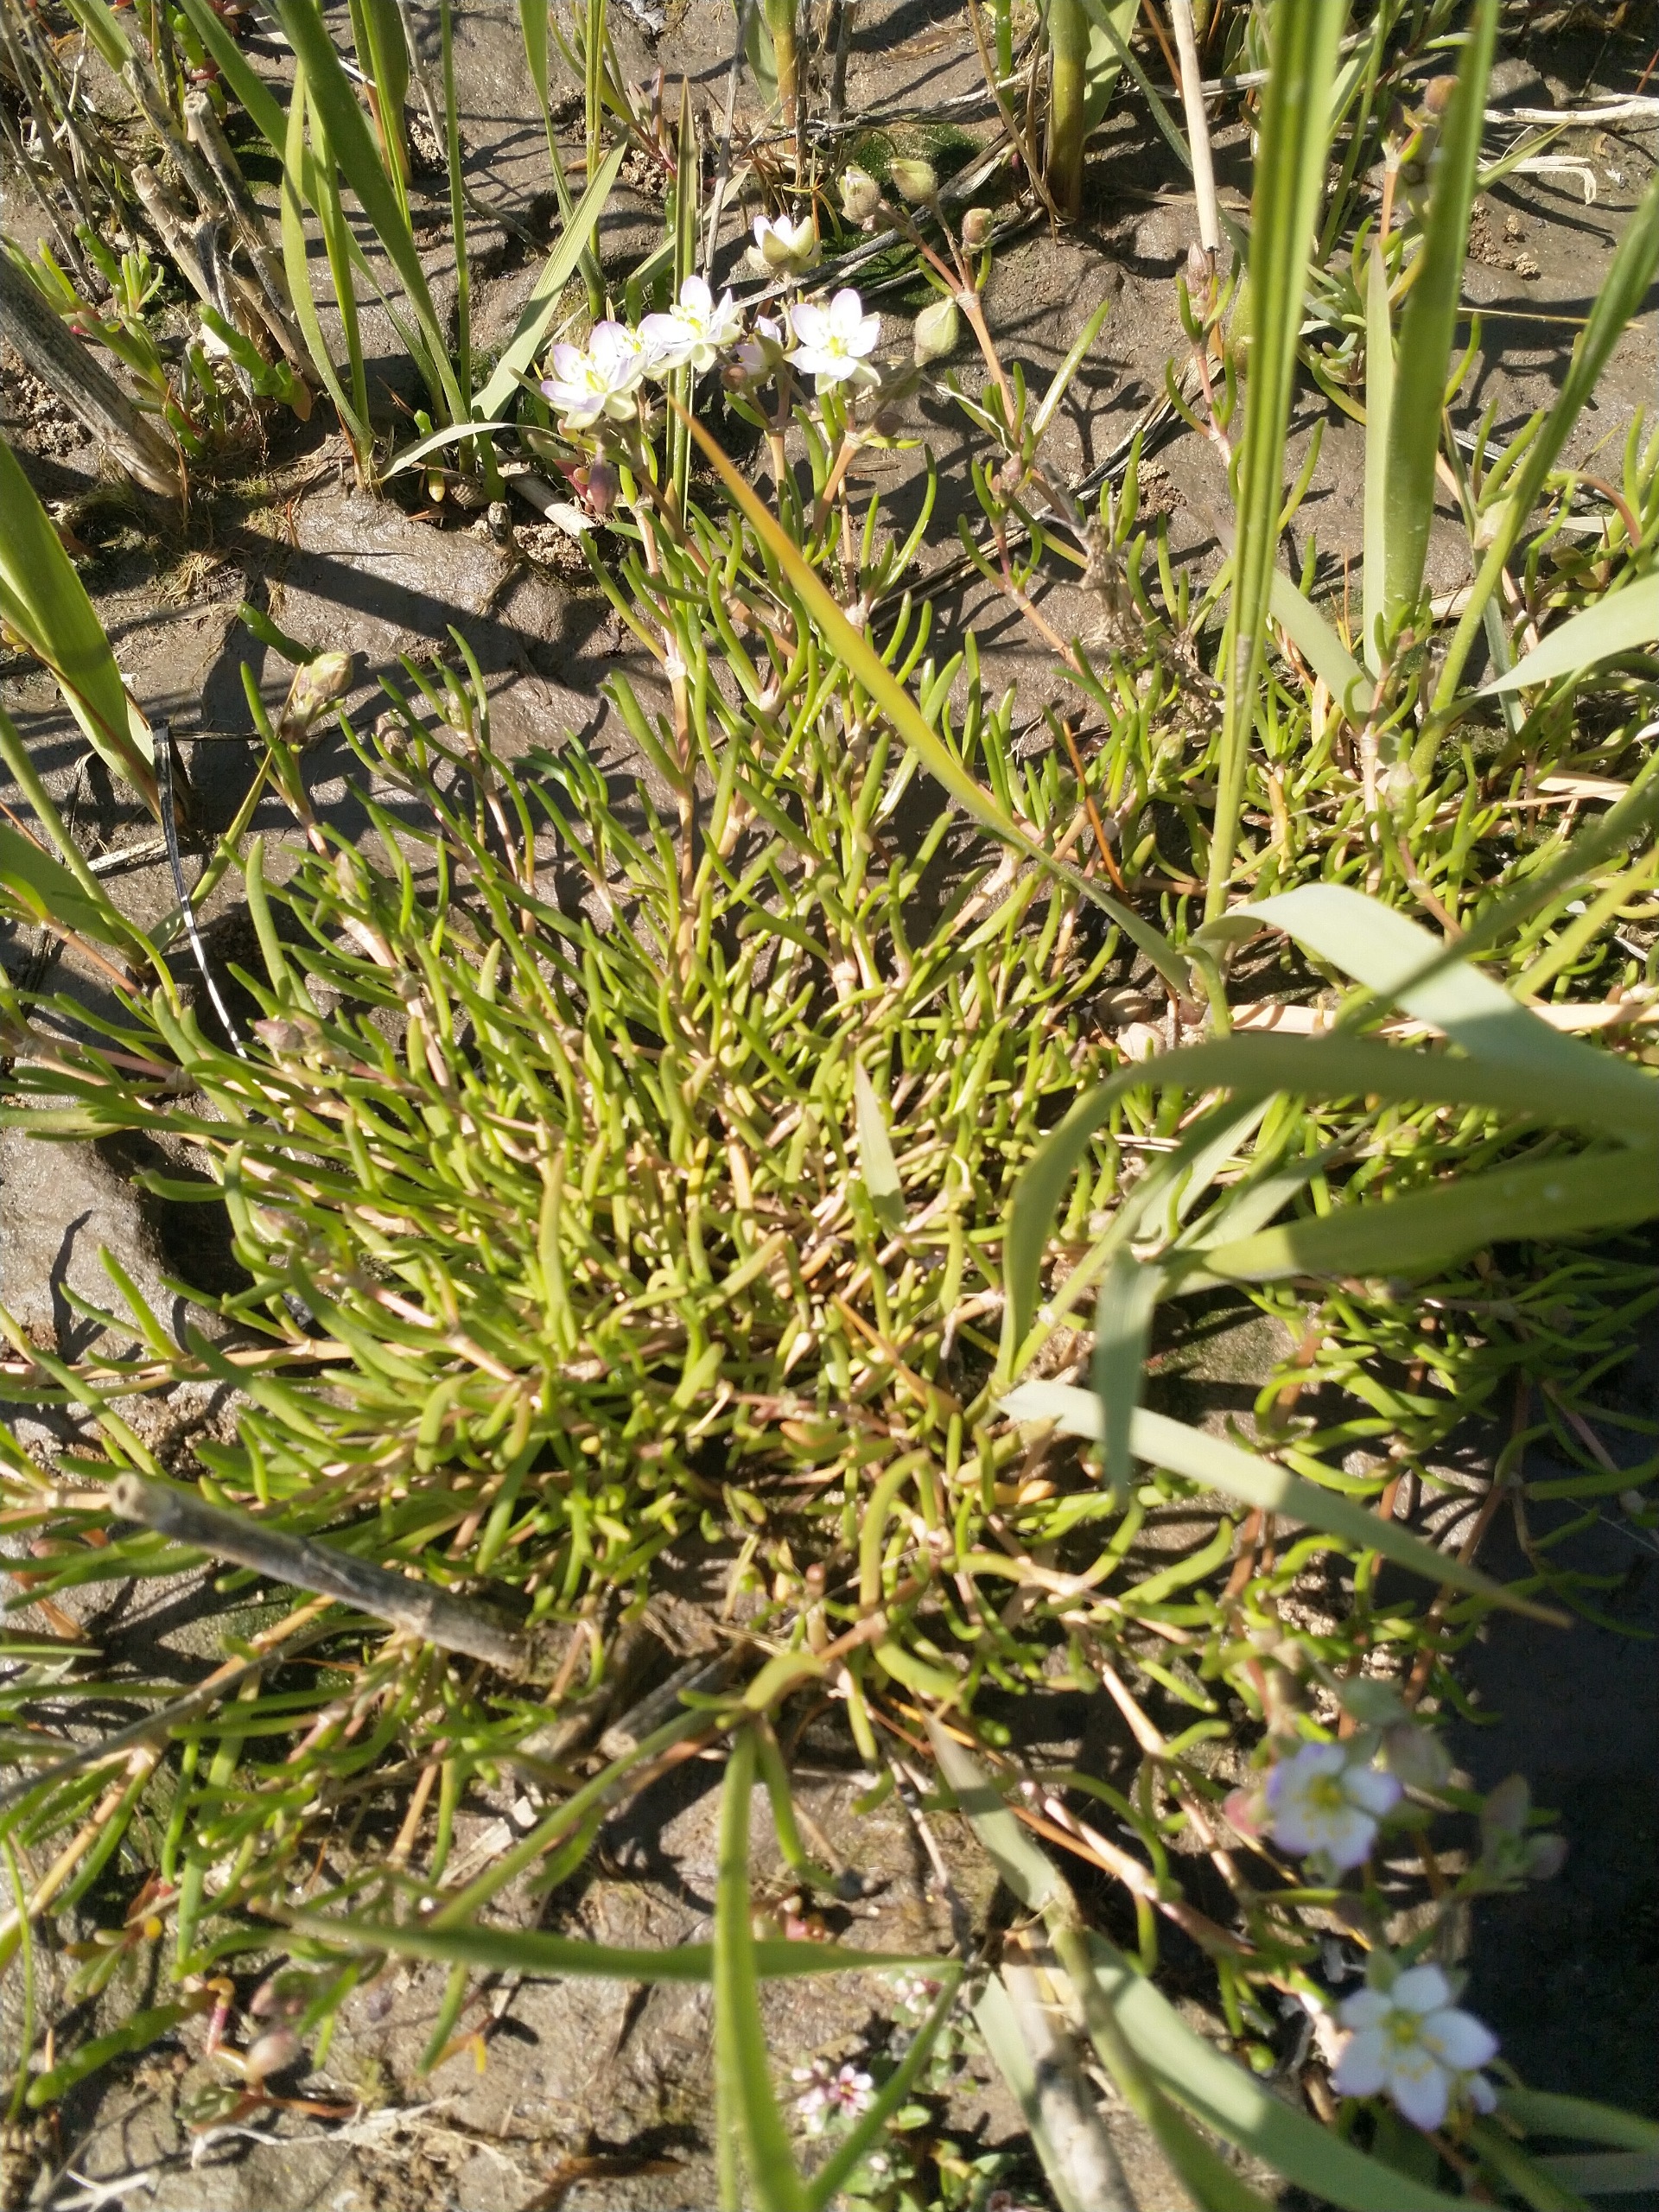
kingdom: Plantae
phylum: Tracheophyta
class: Magnoliopsida
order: Caryophyllales
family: Caryophyllaceae
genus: Spergularia
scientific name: Spergularia media
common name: Vingefrøet hindeknæ
